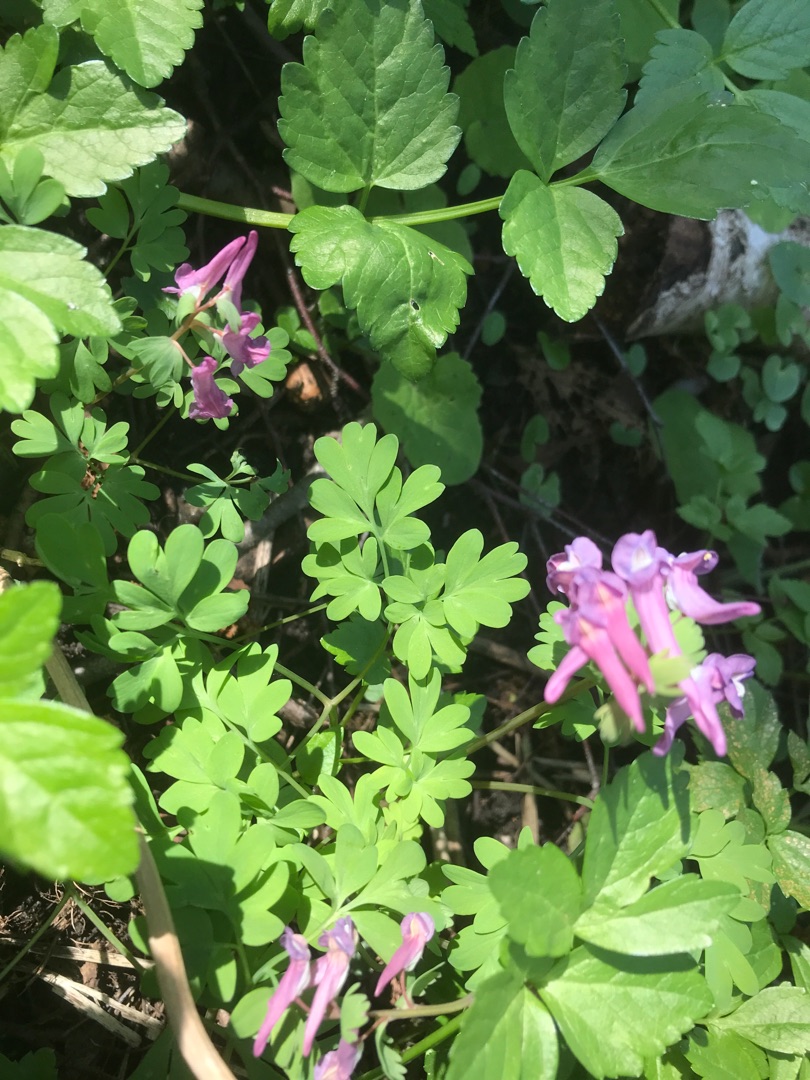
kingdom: Plantae
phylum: Tracheophyta
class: Magnoliopsida
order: Ranunculales
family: Papaveraceae
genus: Corydalis
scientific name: Corydalis solida
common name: Langstilket lærkespore
